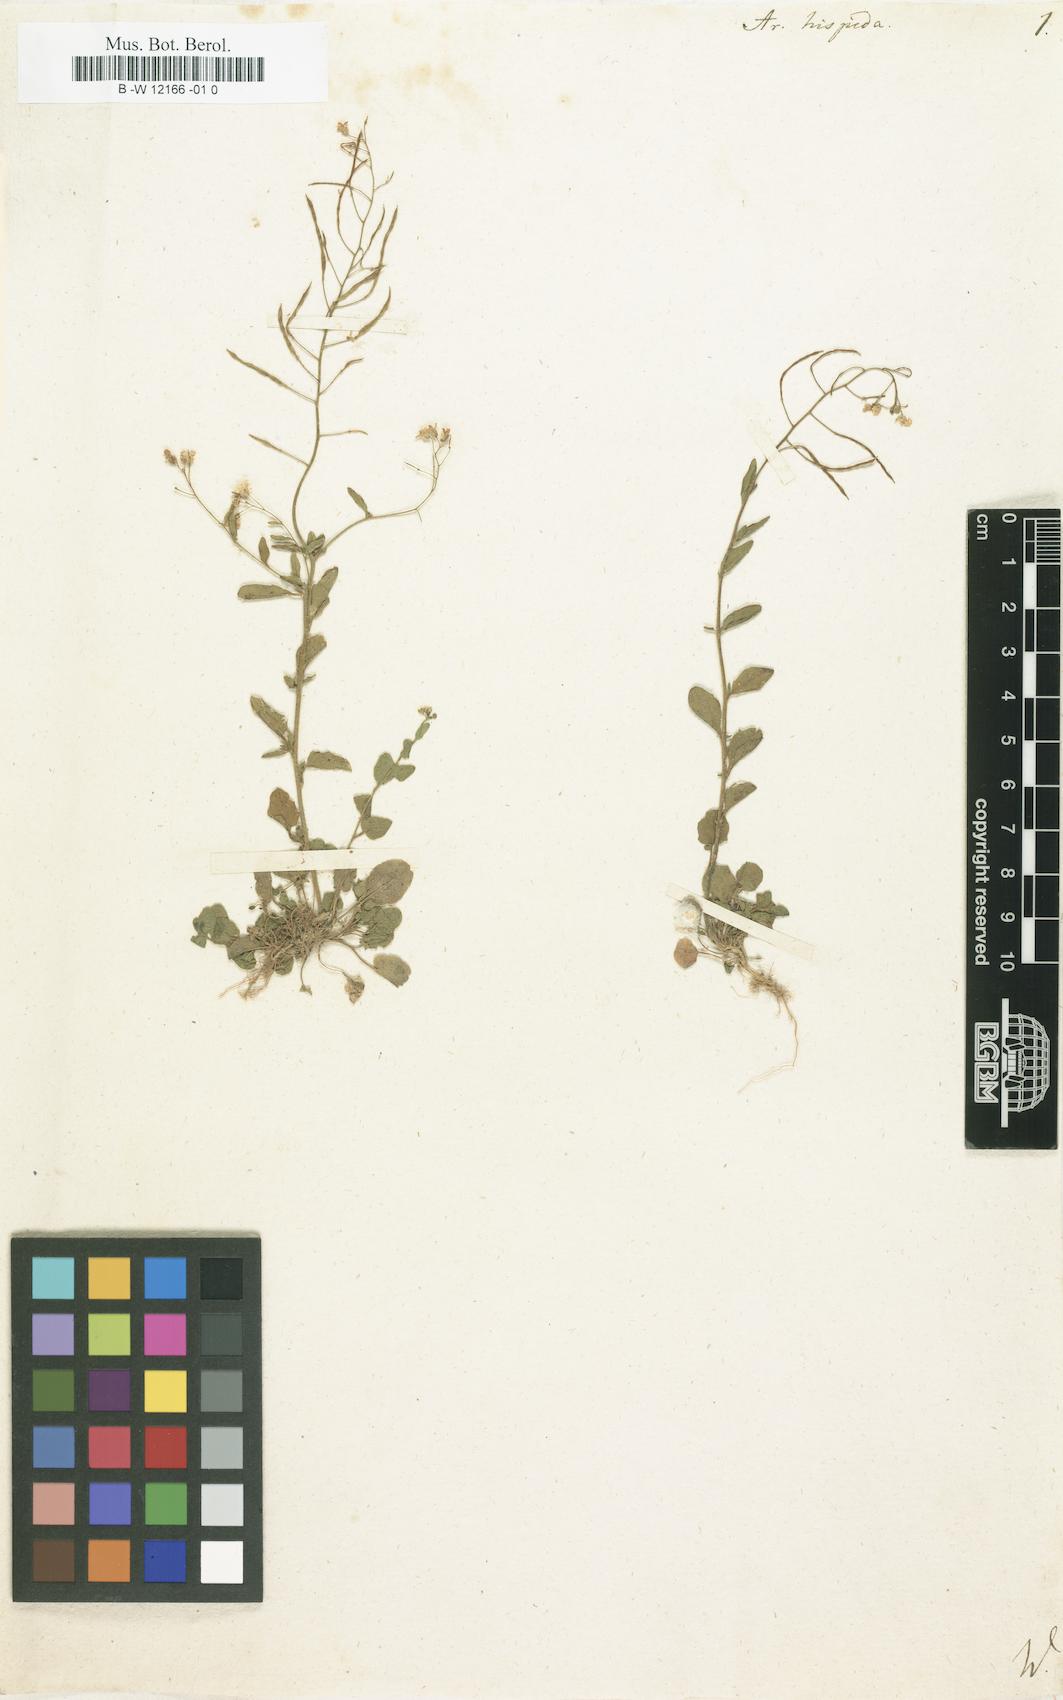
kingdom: Plantae
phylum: Tracheophyta
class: Magnoliopsida
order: Brassicales
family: Brassicaceae
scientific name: Brassicaceae
